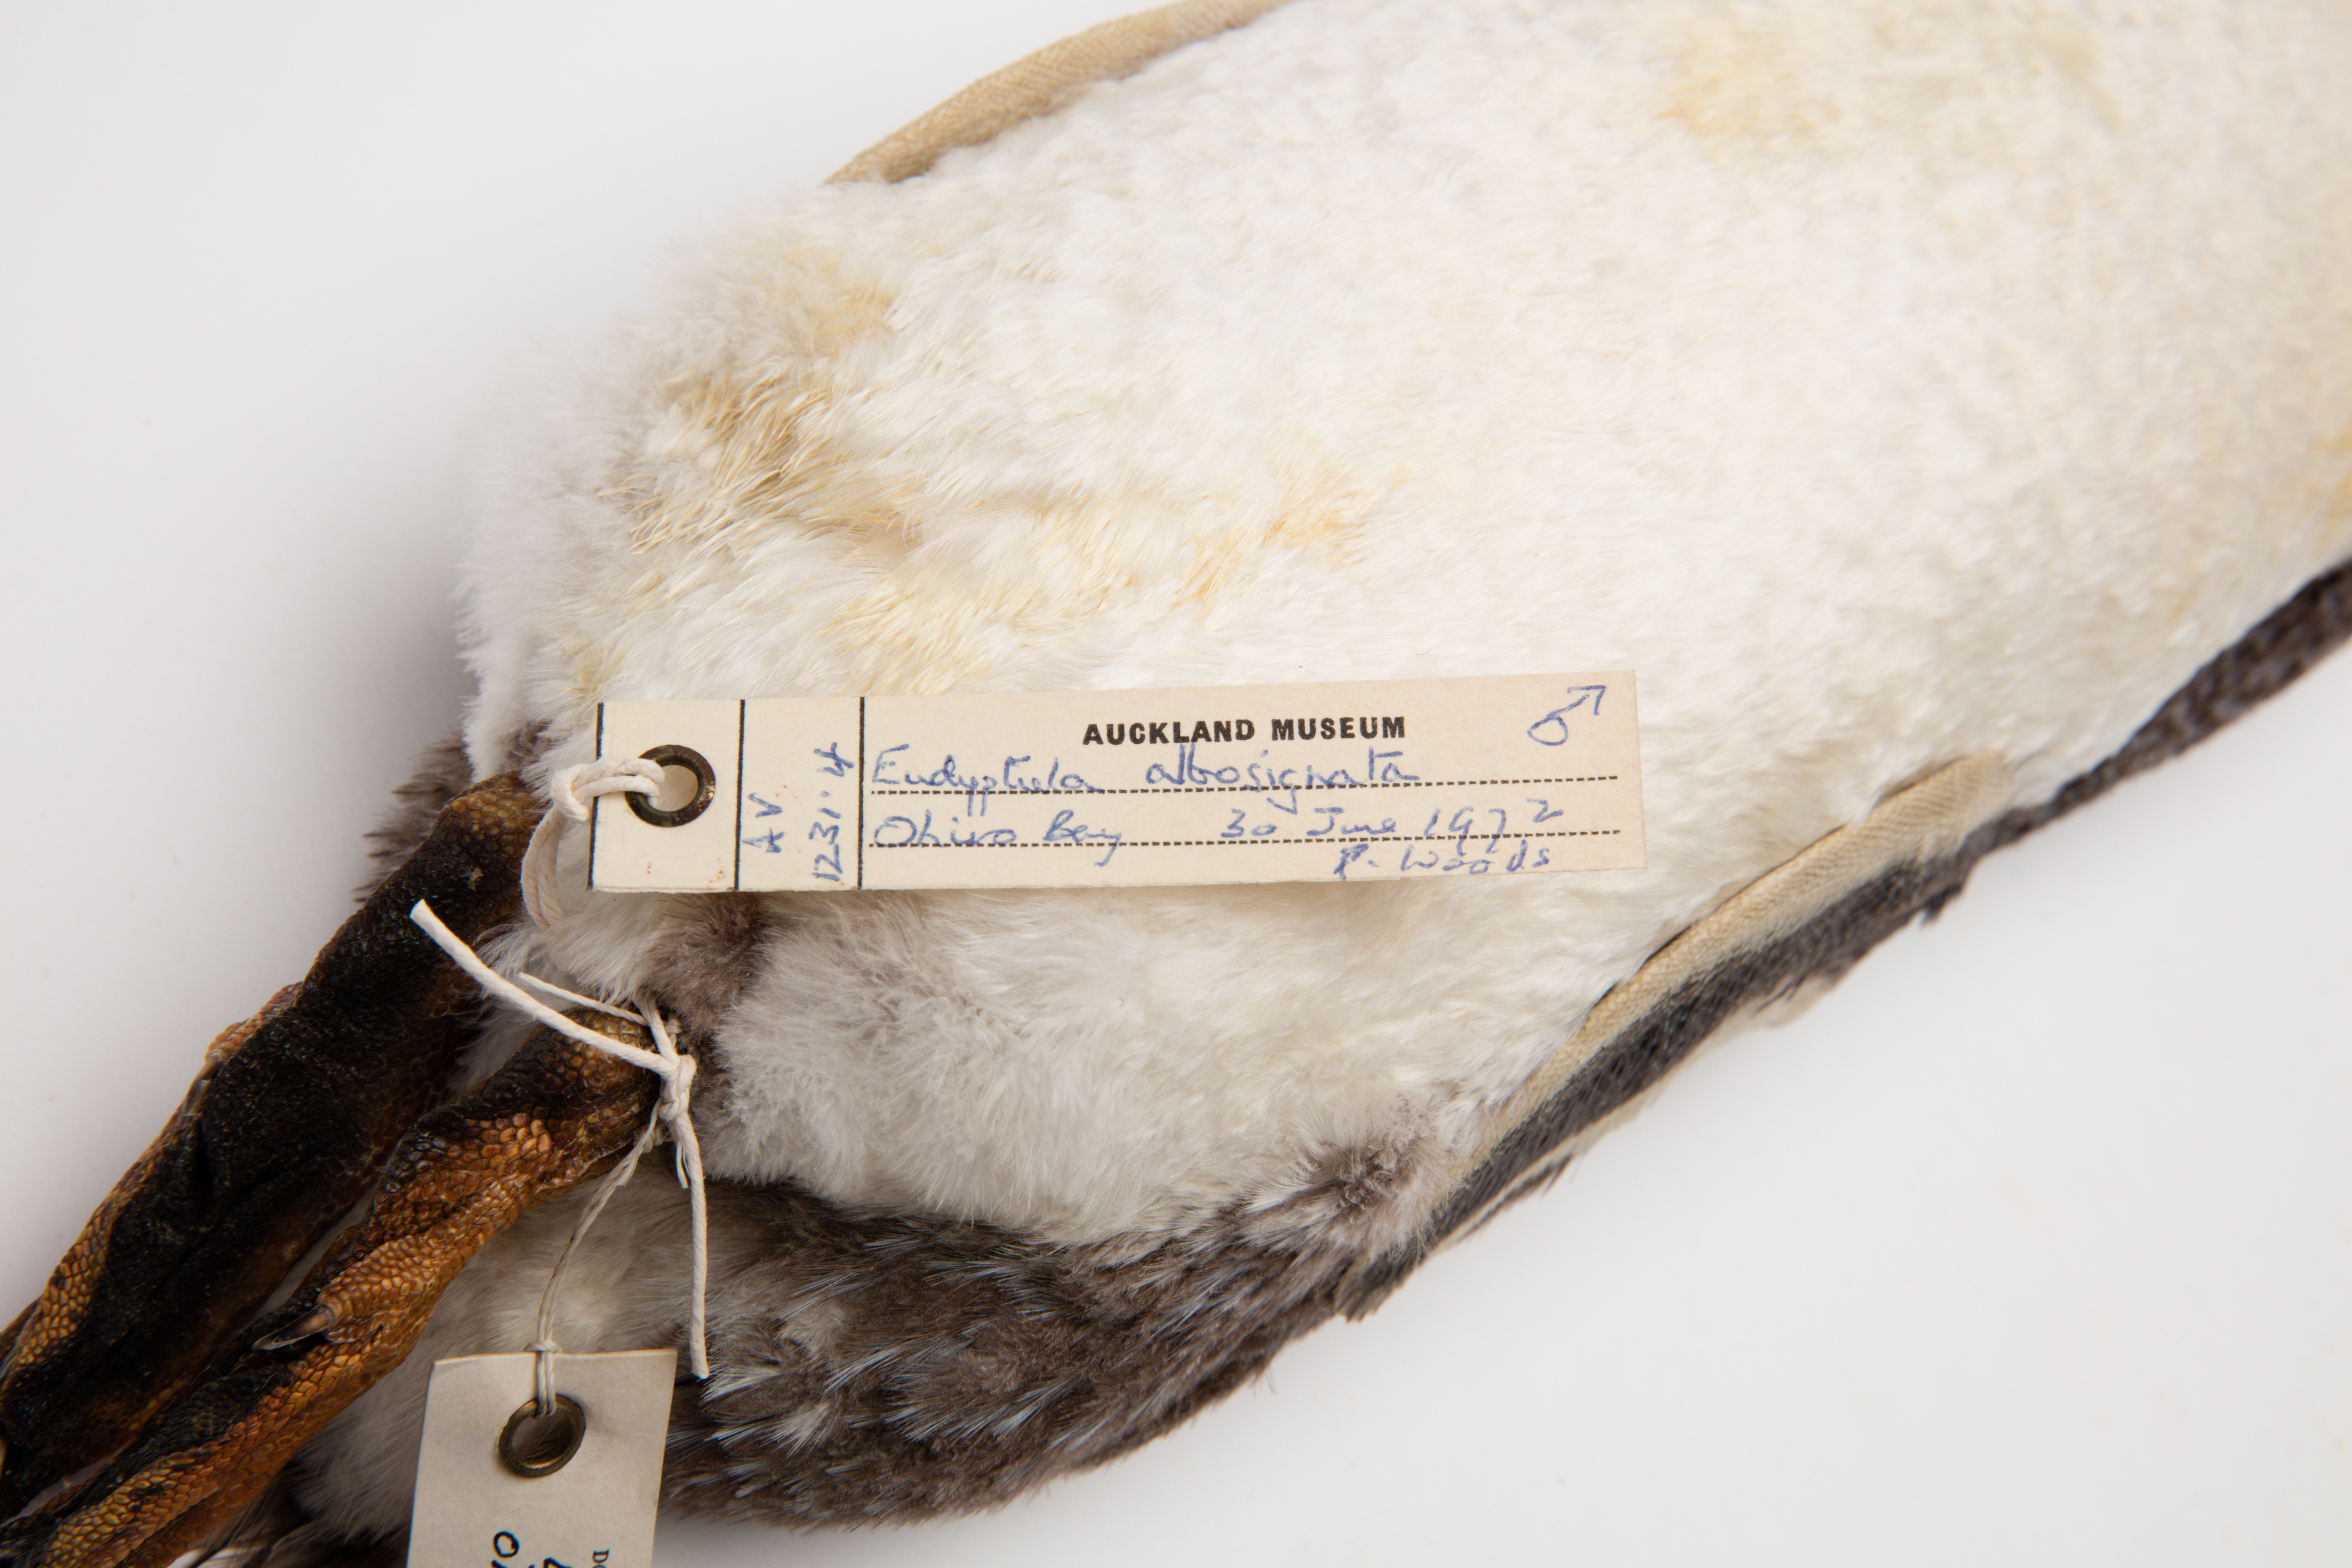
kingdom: Animalia
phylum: Chordata
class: Aves
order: Sphenisciformes
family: Spheniscidae
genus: Eudyptula
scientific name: Eudyptula minor
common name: Little penguin
